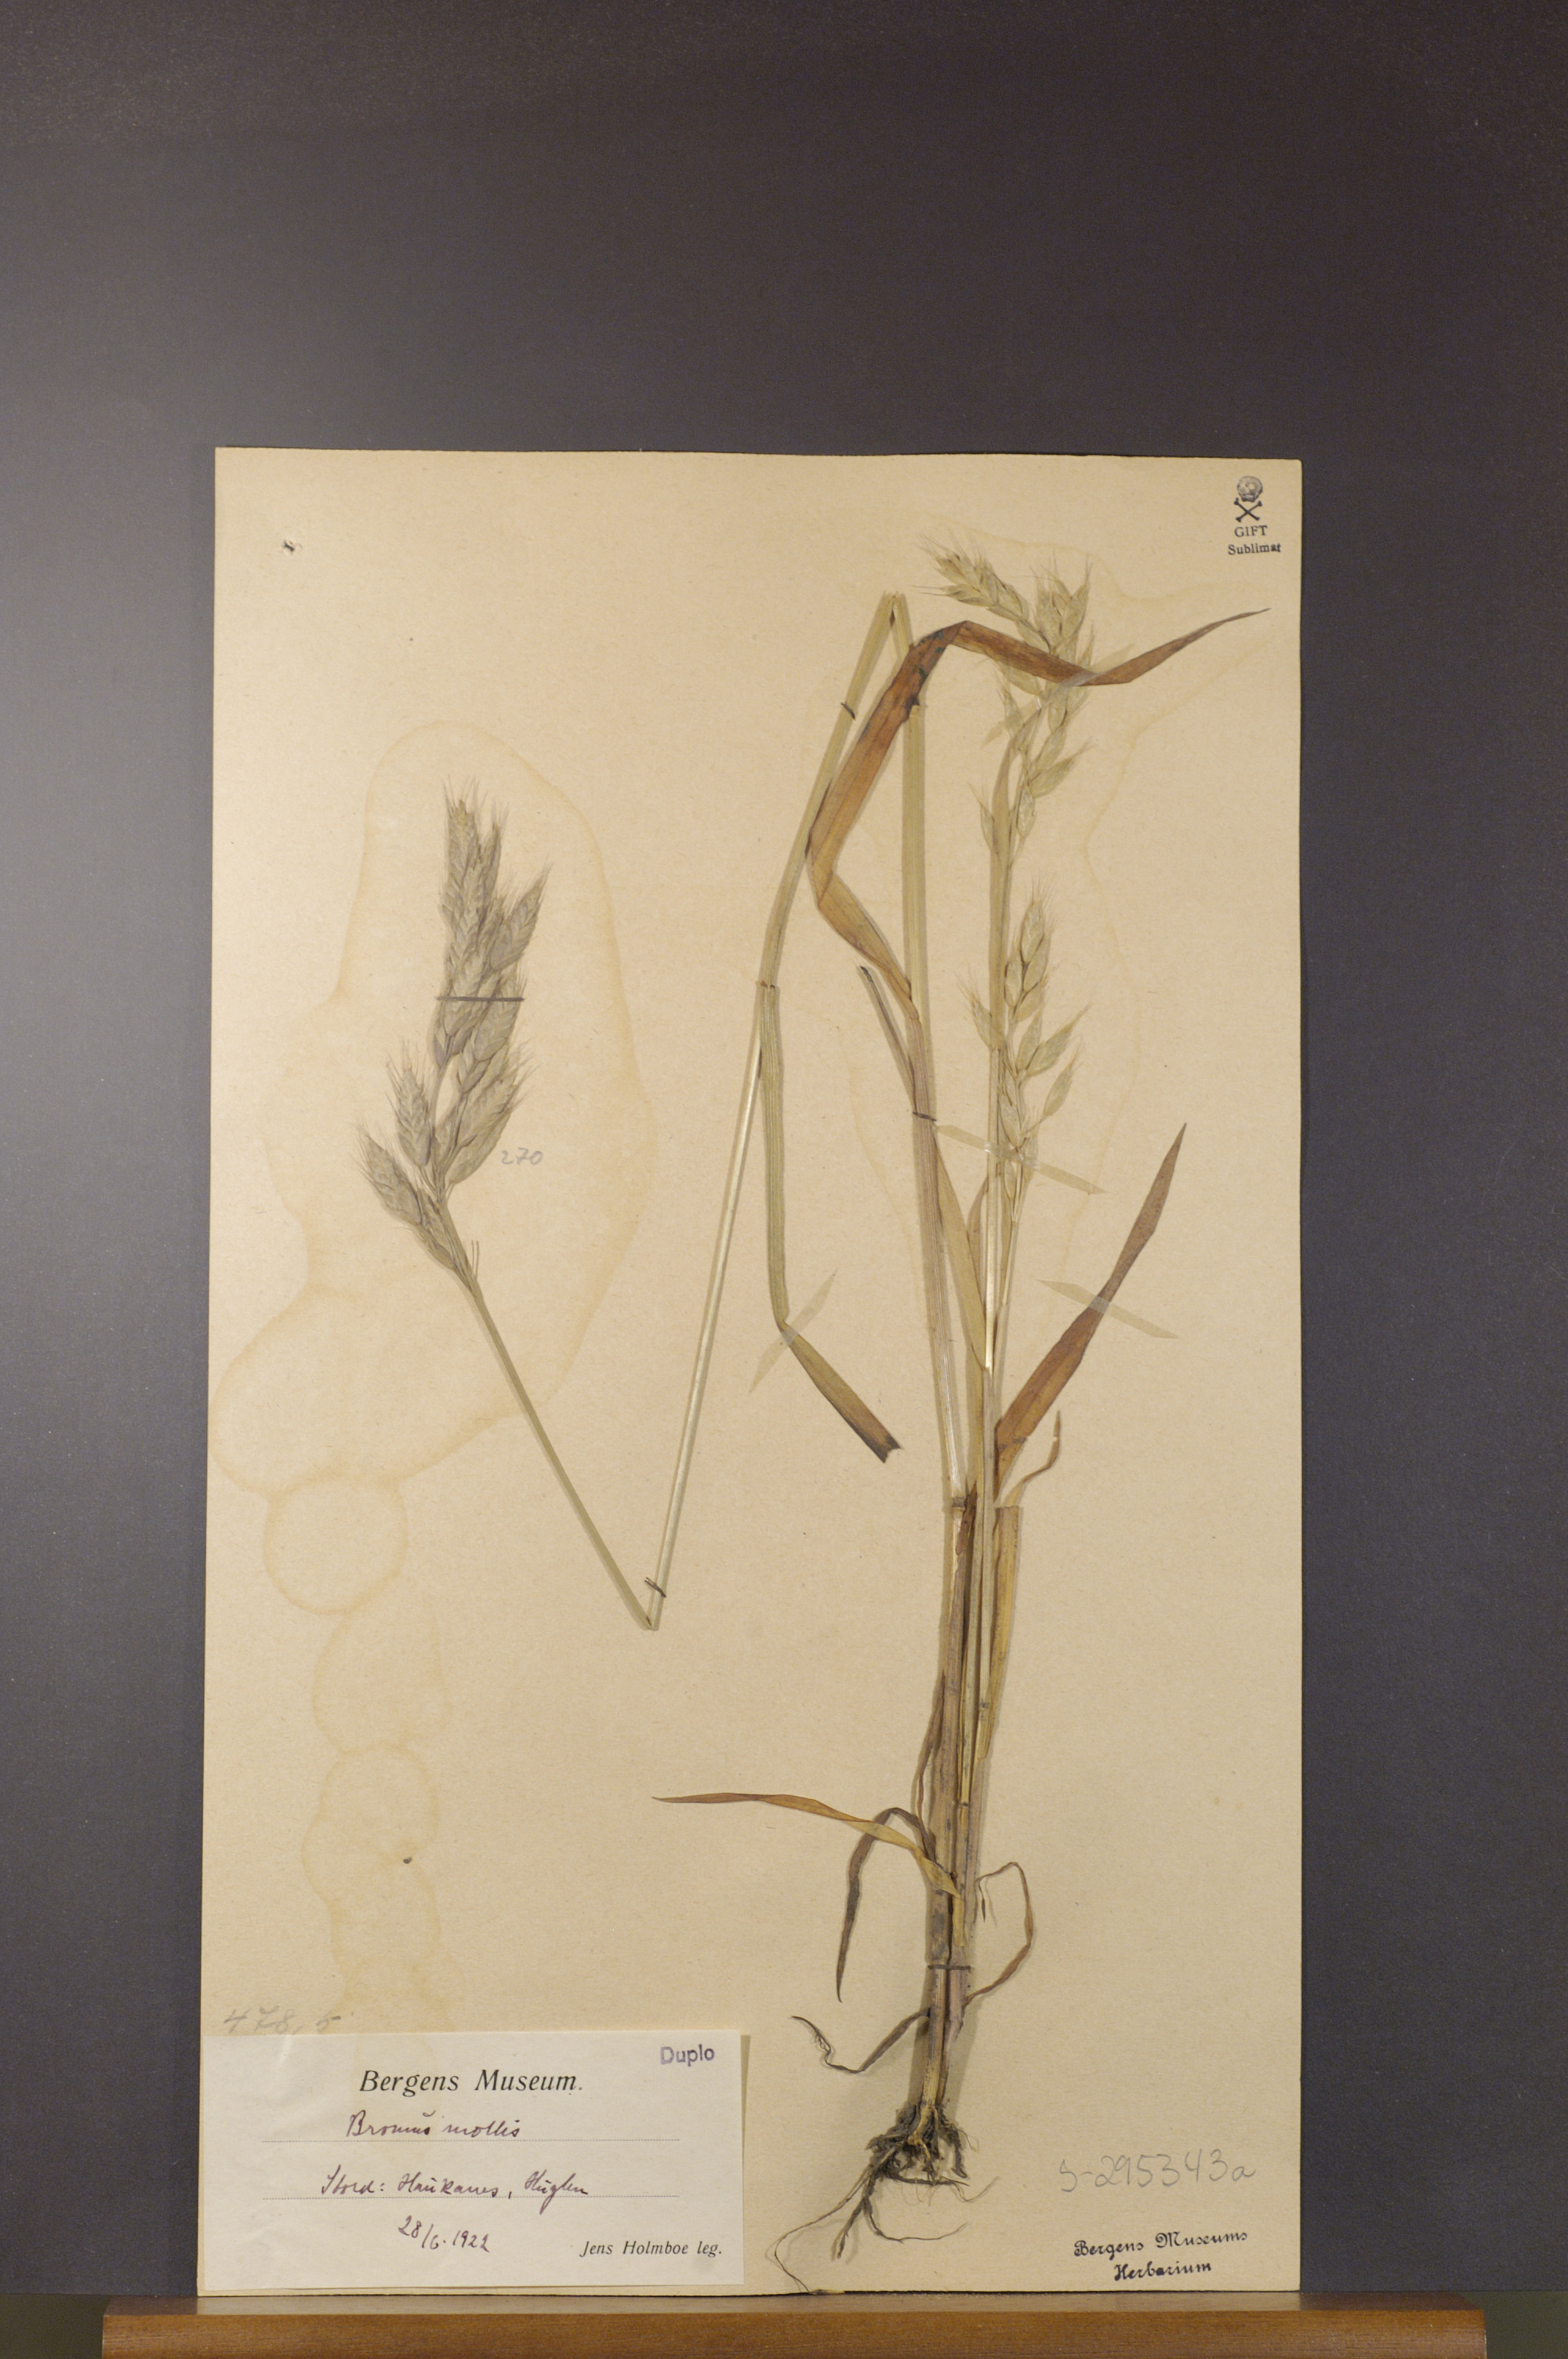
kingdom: Plantae
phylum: Tracheophyta
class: Liliopsida
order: Poales
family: Poaceae
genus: Bromus
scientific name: Bromus hordeaceus
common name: Soft brome
